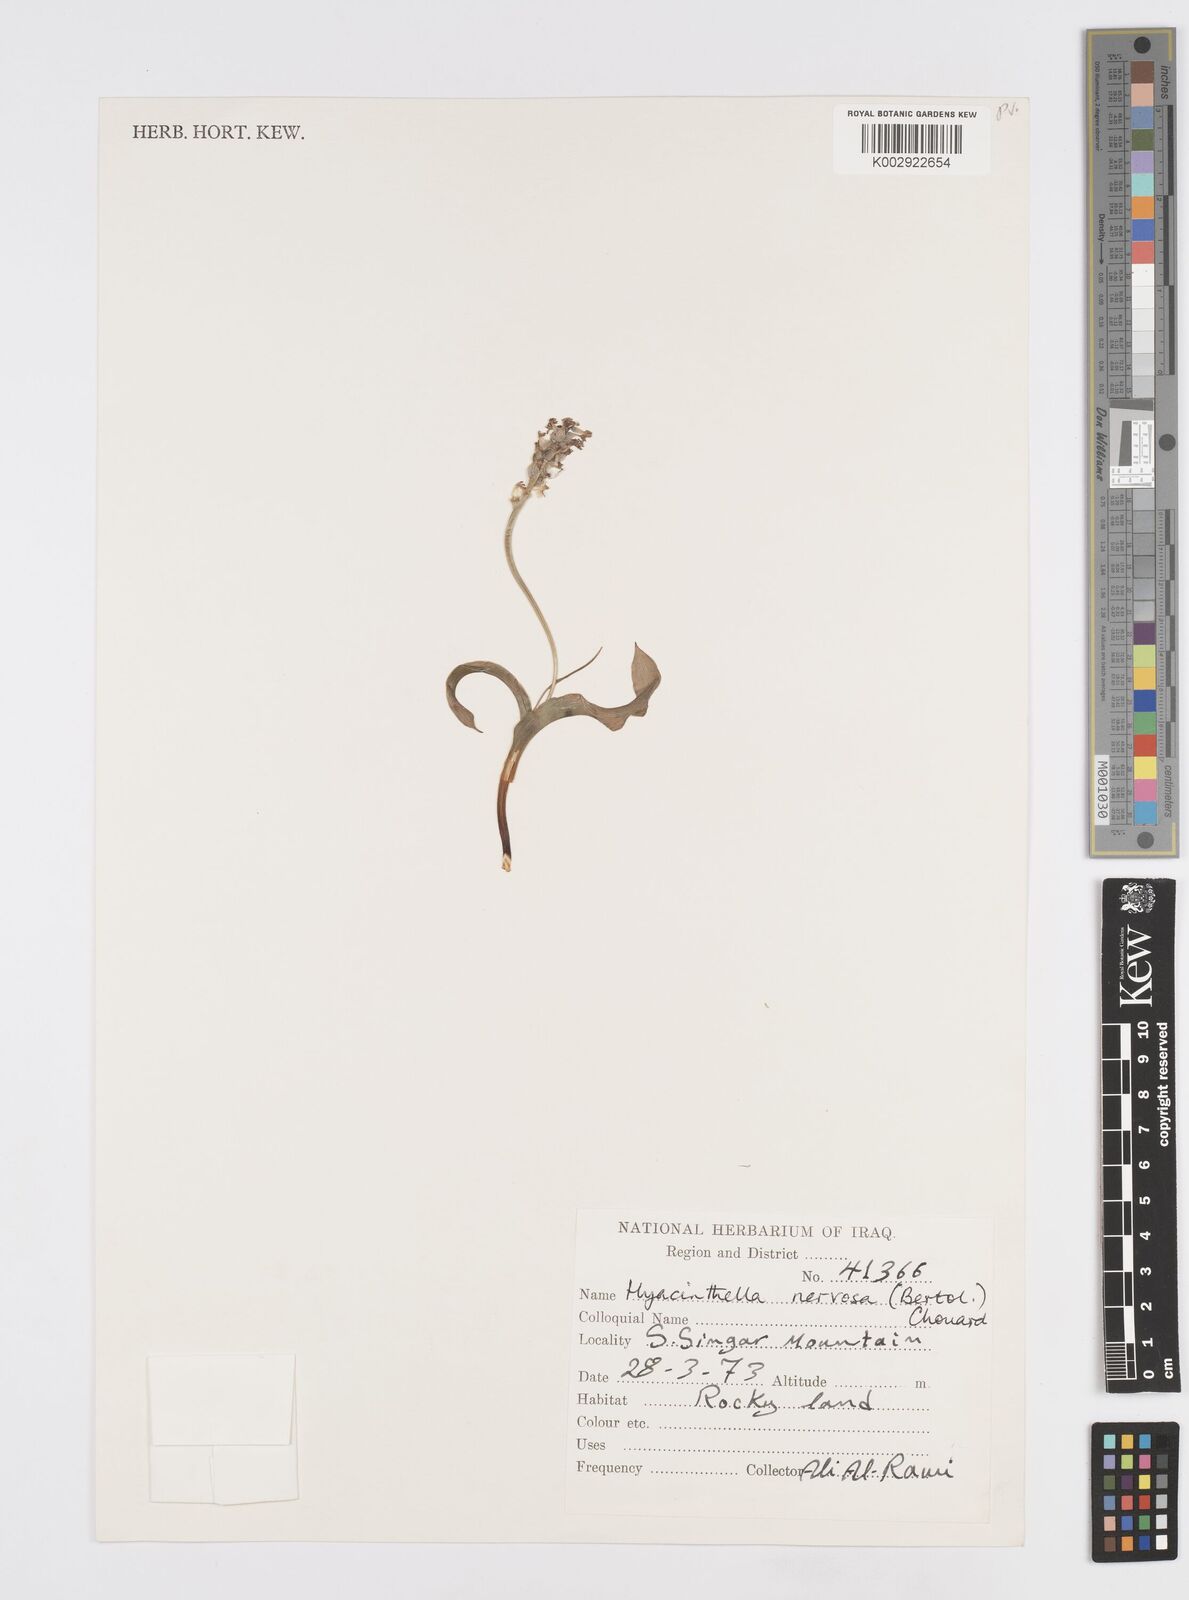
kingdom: Plantae
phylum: Tracheophyta
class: Liliopsida
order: Asparagales
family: Asparagaceae
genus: Hyacinthella
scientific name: Hyacinthella nervosa
